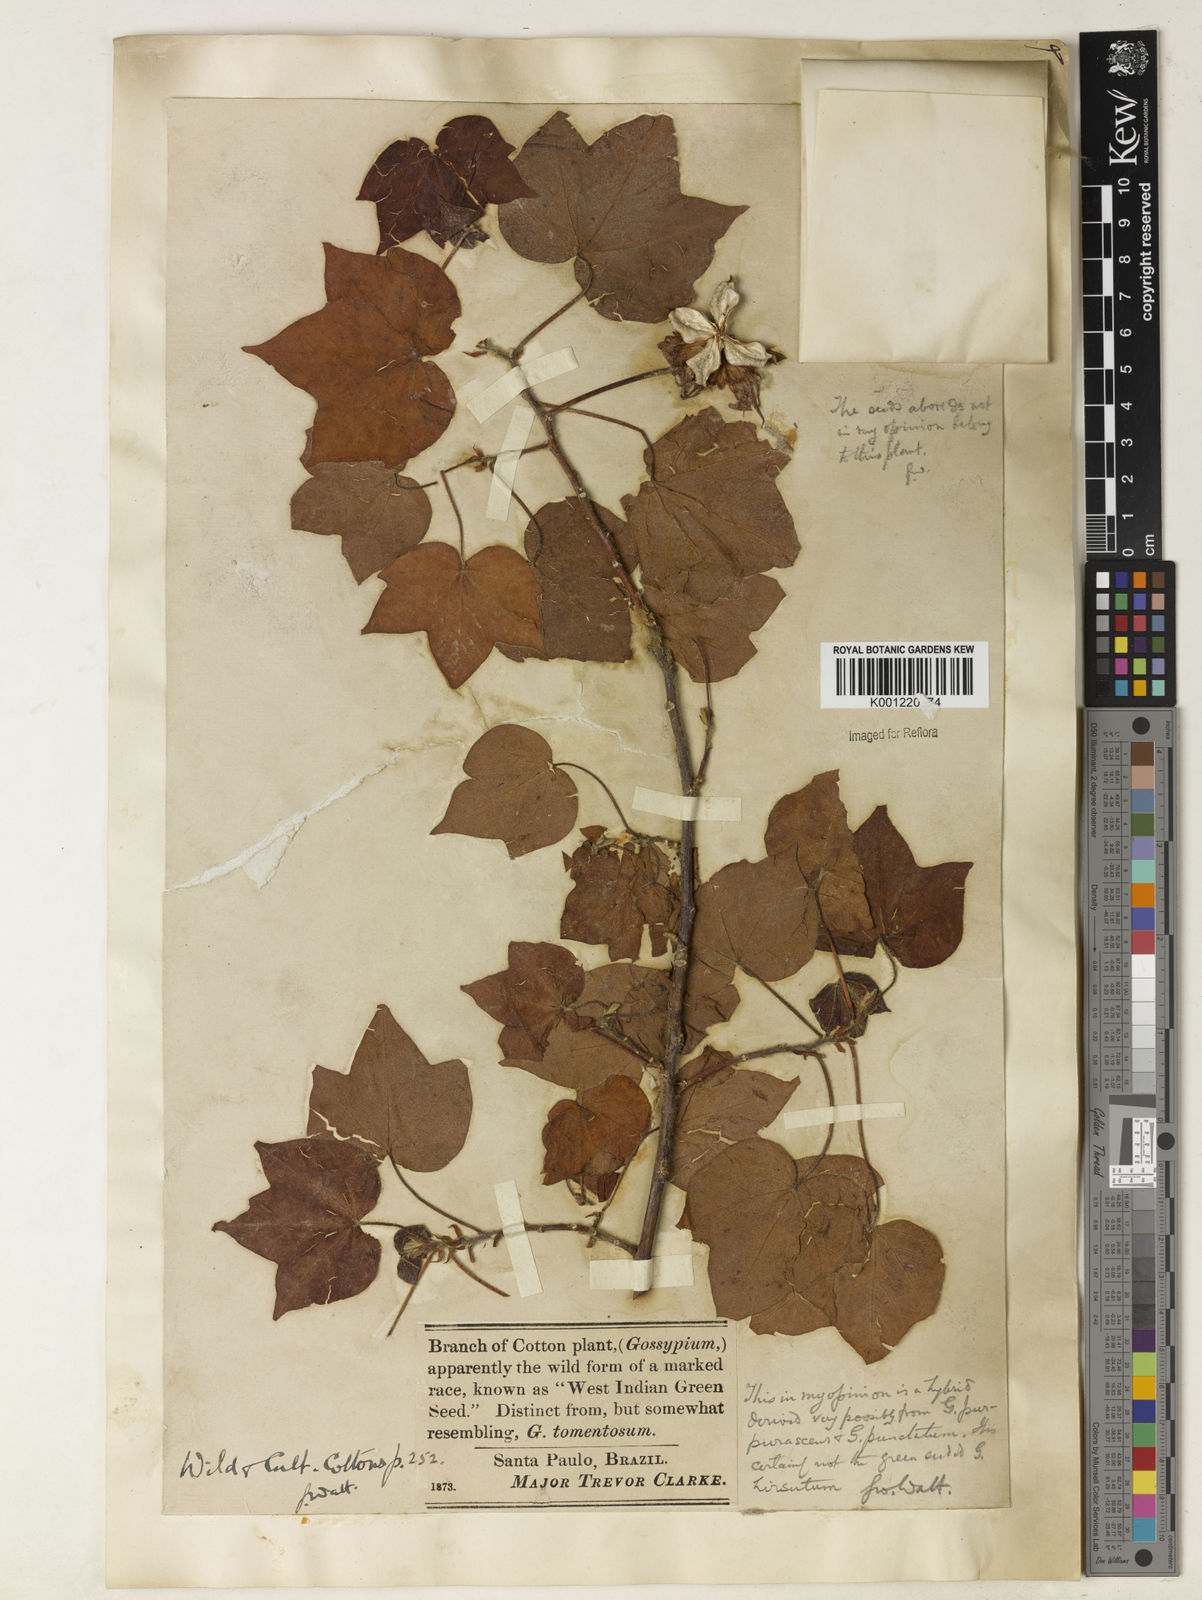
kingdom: Plantae
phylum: Tracheophyta
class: Magnoliopsida
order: Malvales
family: Malvaceae
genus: Gossypium
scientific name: Gossypium arboreum
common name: Tree cotton
